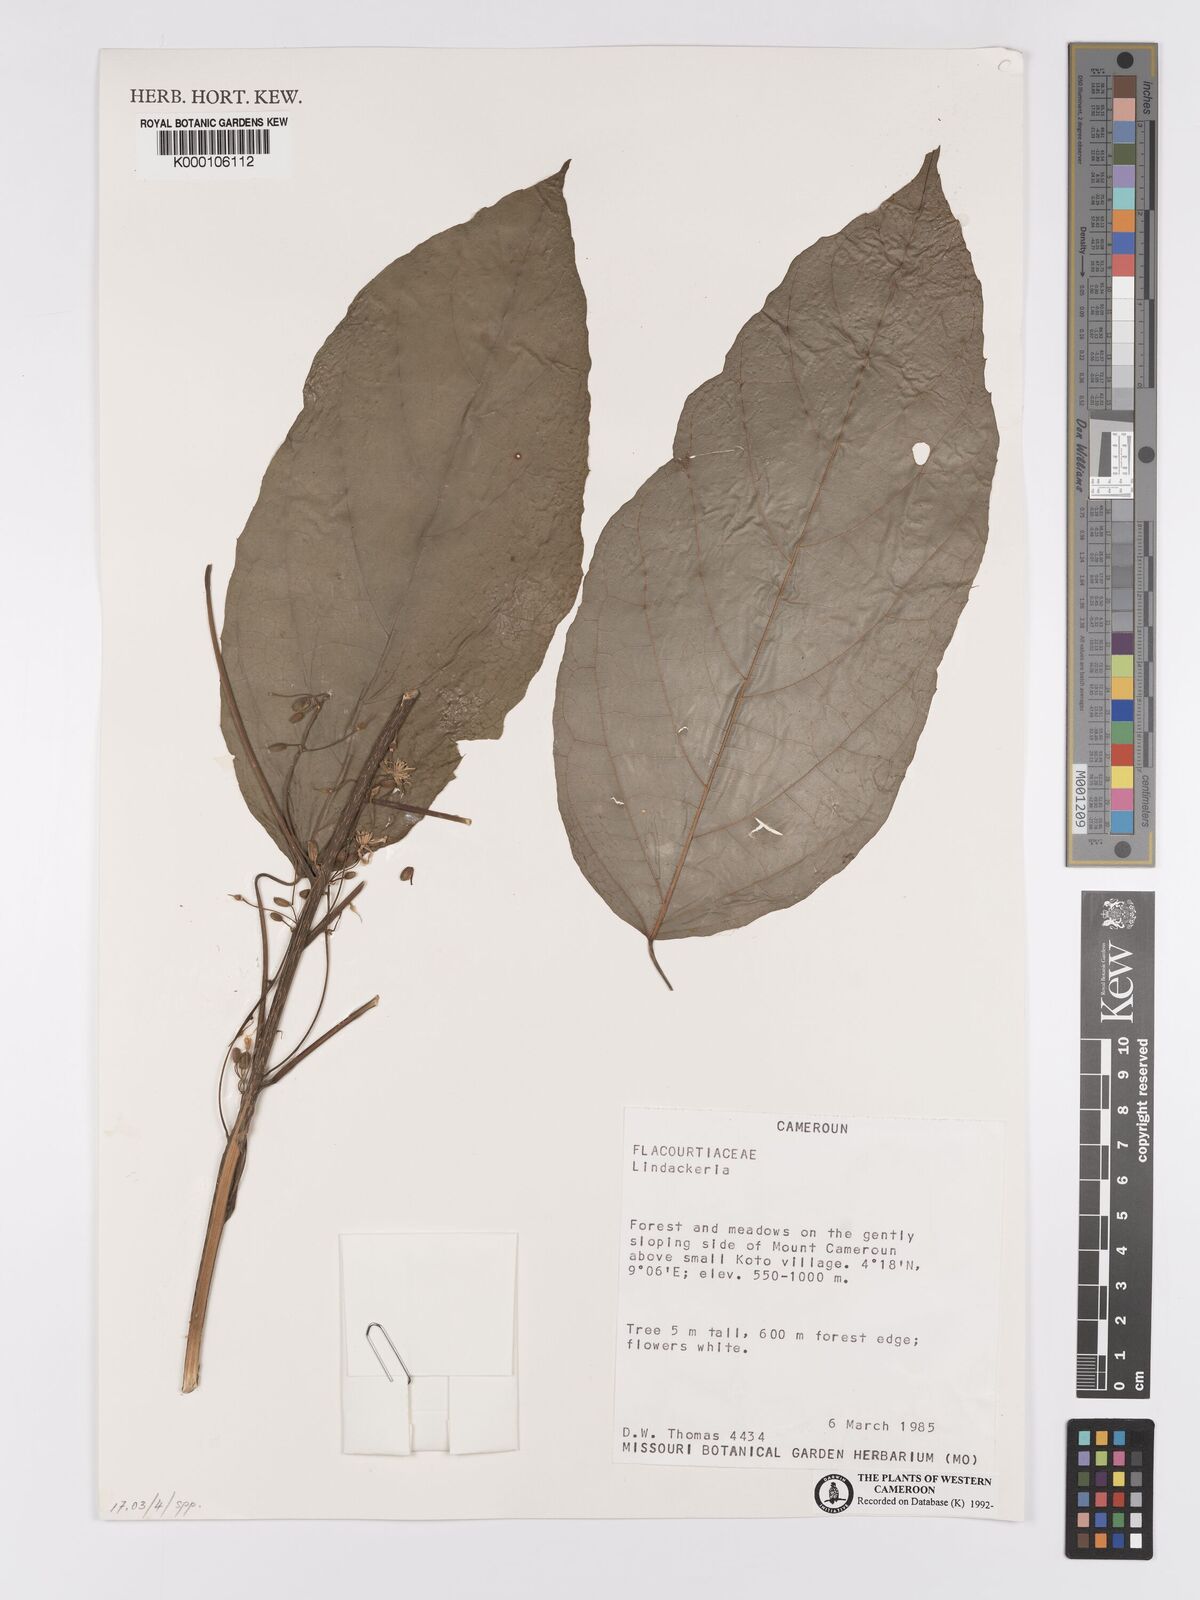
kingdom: Plantae
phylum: Tracheophyta
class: Magnoliopsida
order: Malpighiales
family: Achariaceae
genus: Lindackeria
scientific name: Lindackeria
